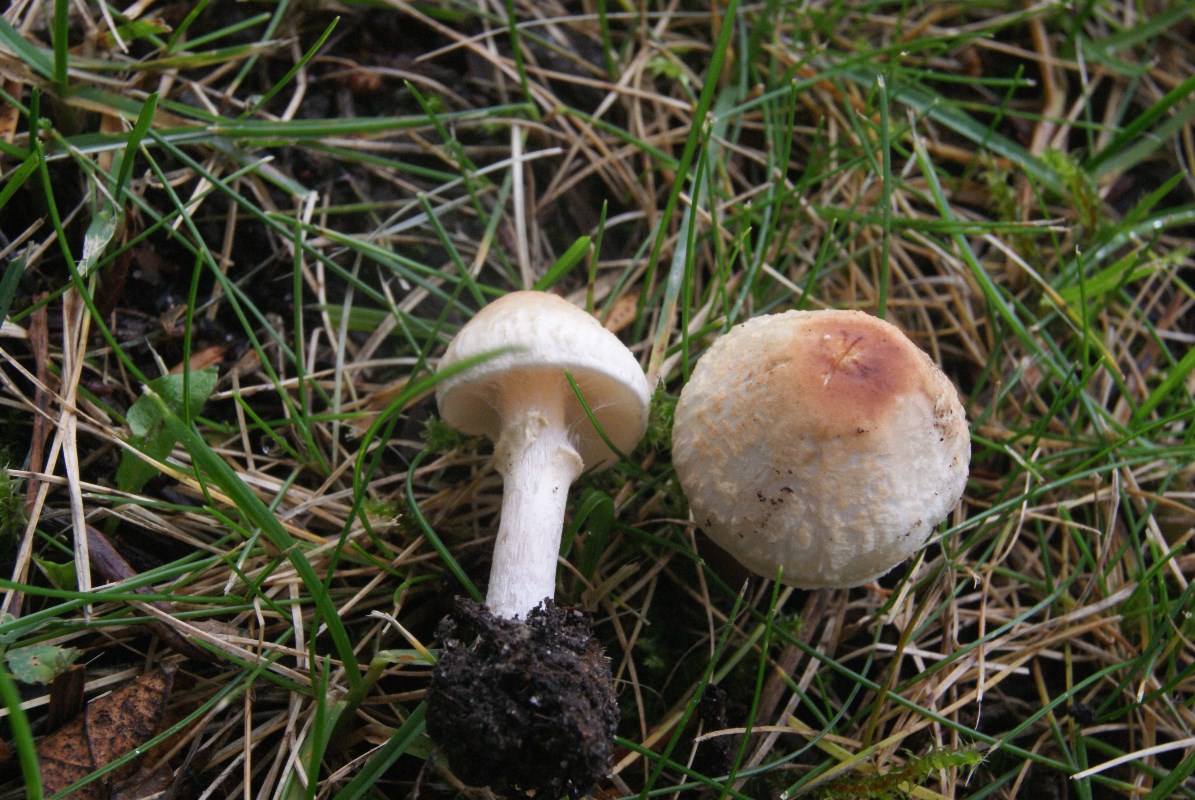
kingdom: Fungi
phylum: Basidiomycota
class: Agaricomycetes
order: Agaricales
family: Agaricaceae
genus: Lepiota
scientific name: Lepiota cristata
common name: stinkende parasolhat
